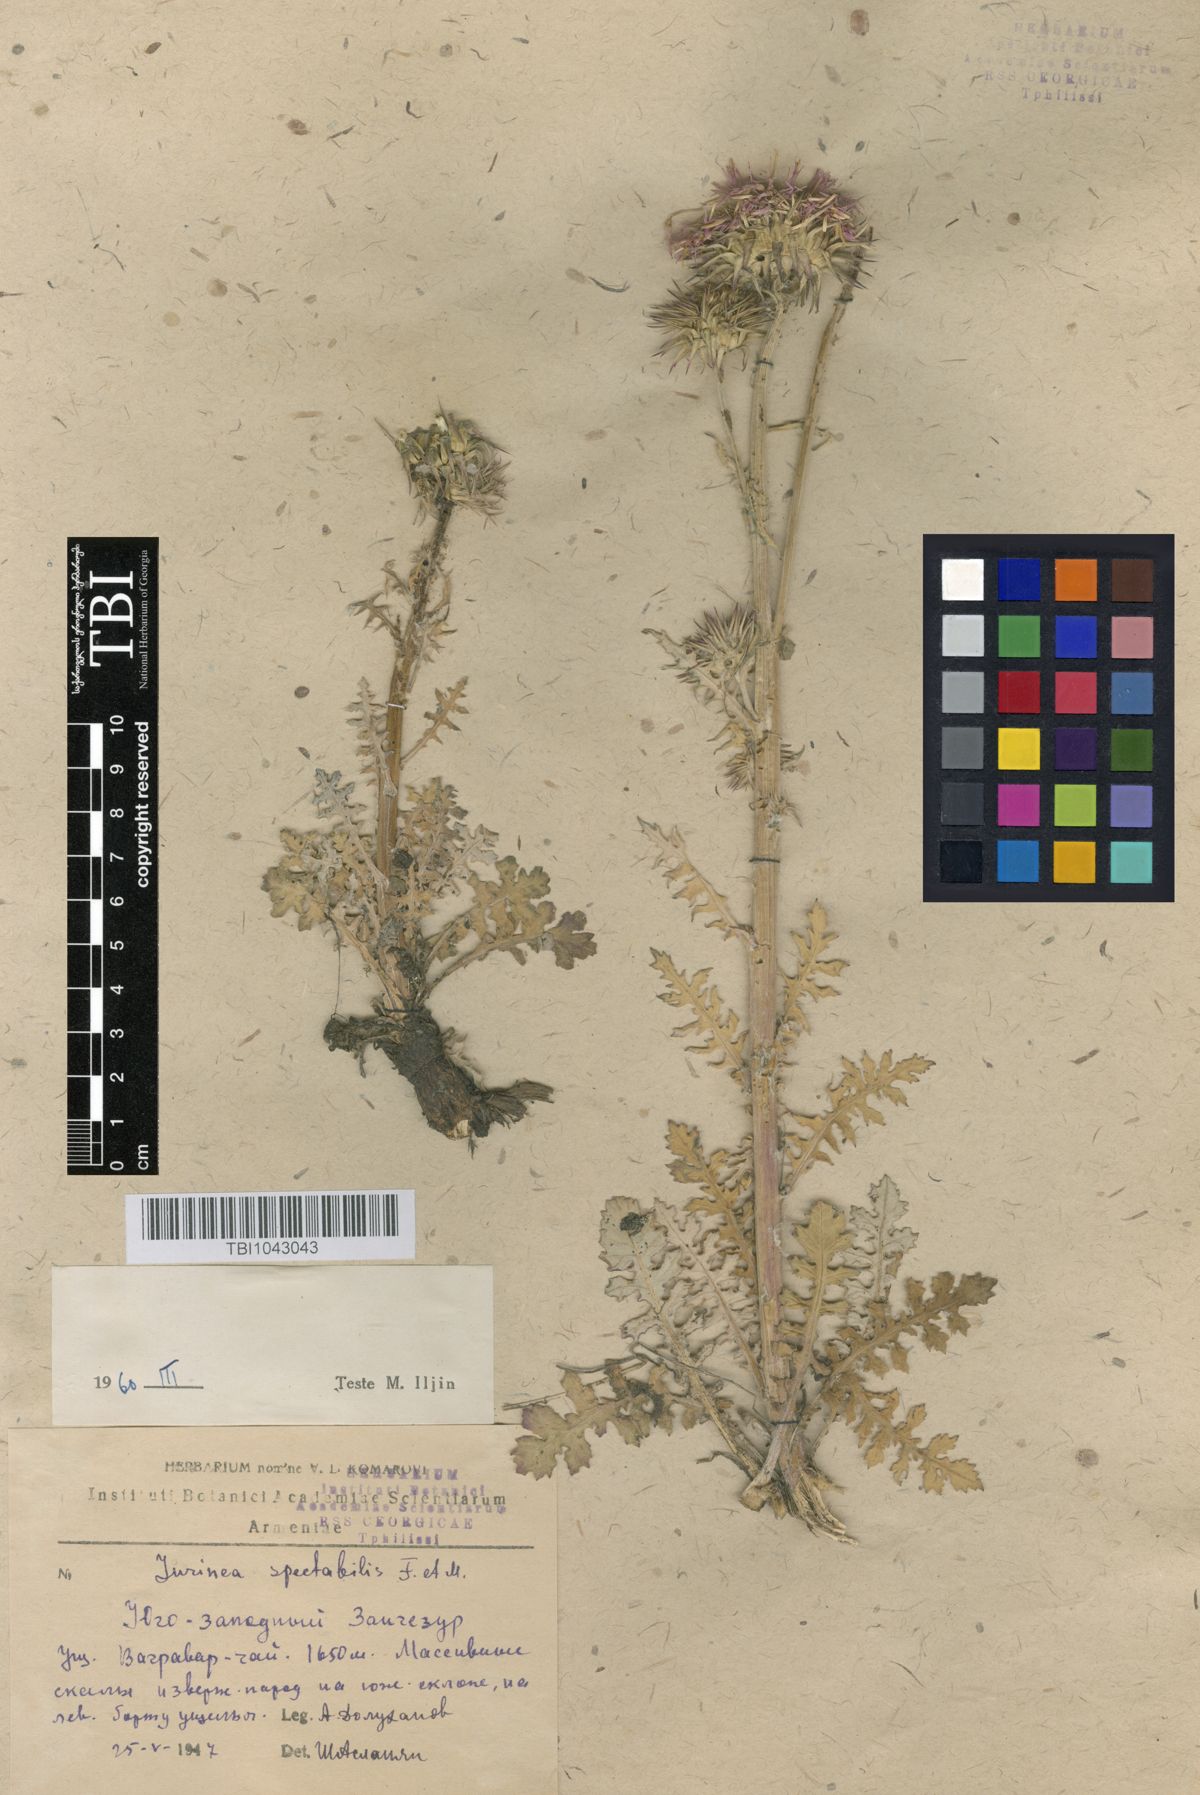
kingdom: Plantae
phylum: Tracheophyta
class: Magnoliopsida
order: Asterales
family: Asteraceae
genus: Jurinea
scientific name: Jurinea spectabilis
